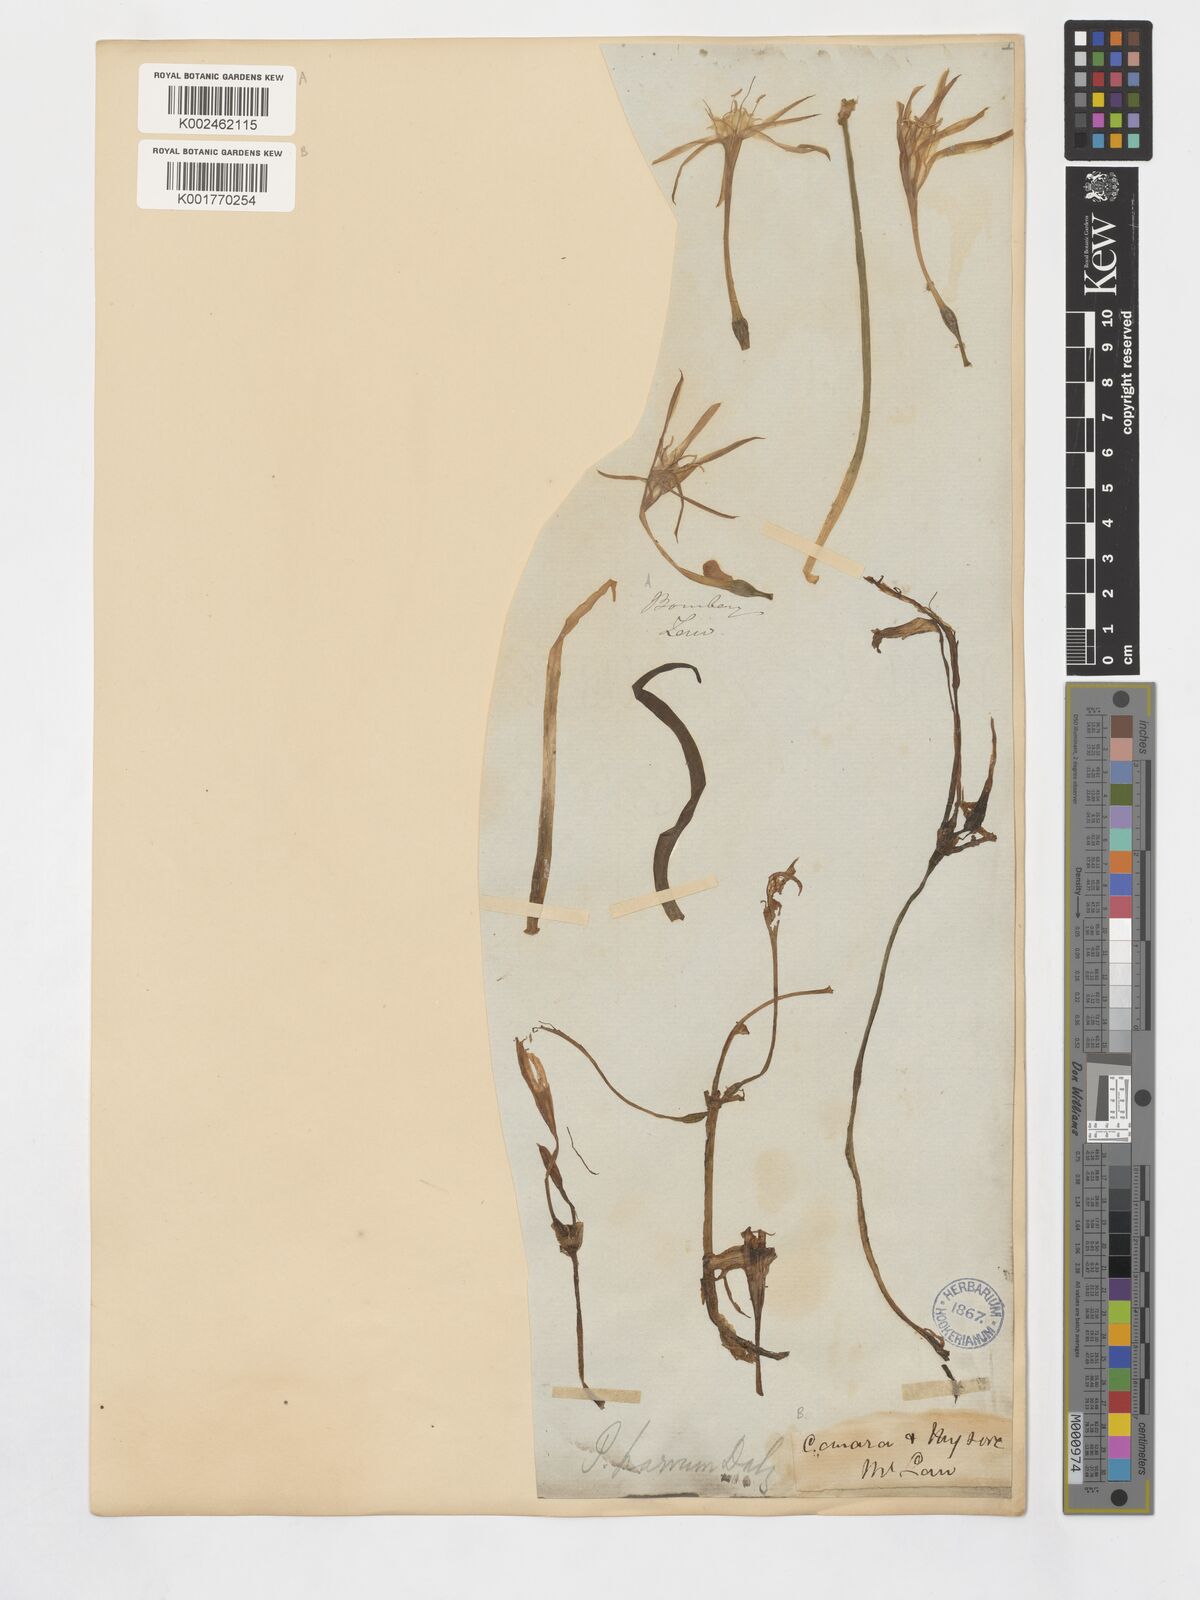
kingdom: Plantae
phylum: Tracheophyta
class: Liliopsida
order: Asparagales
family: Amaryllidaceae
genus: Pancratium
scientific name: Pancratium parvum
